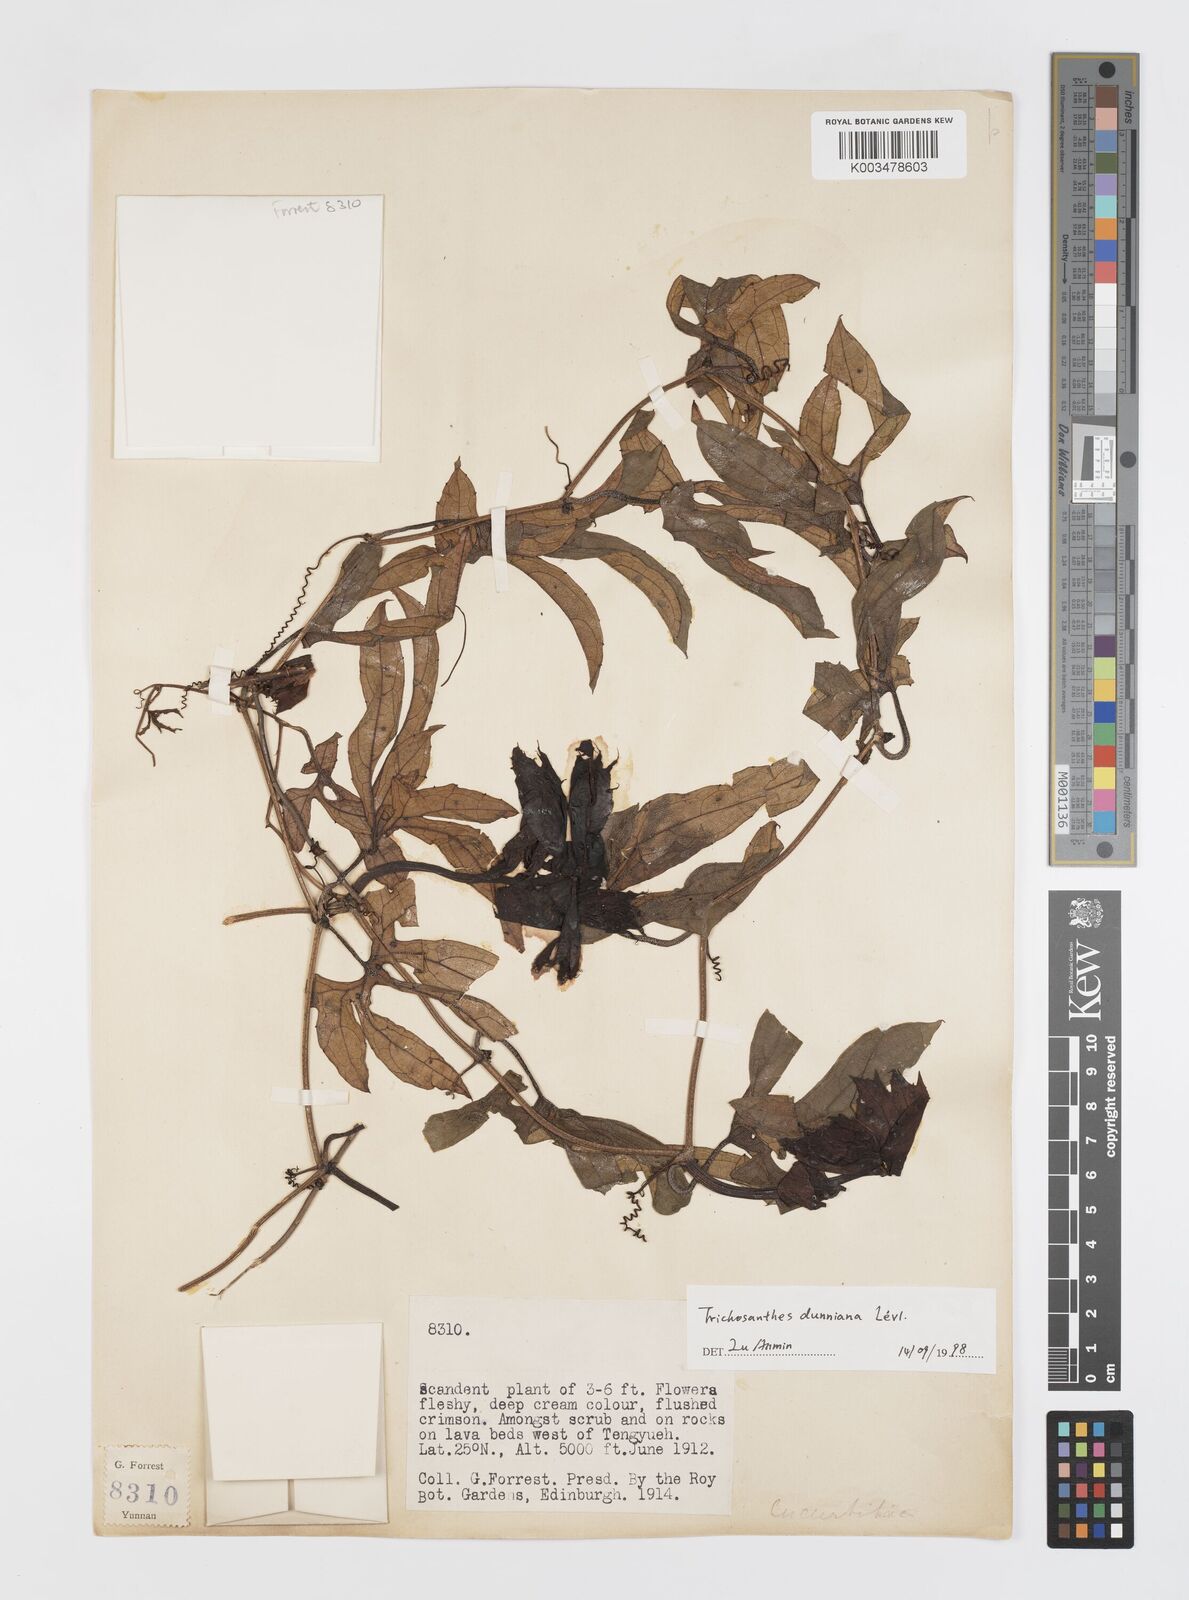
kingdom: Plantae
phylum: Tracheophyta
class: Magnoliopsida
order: Cucurbitales
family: Cucurbitaceae
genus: Trichosanthes
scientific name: Trichosanthes dunniana
